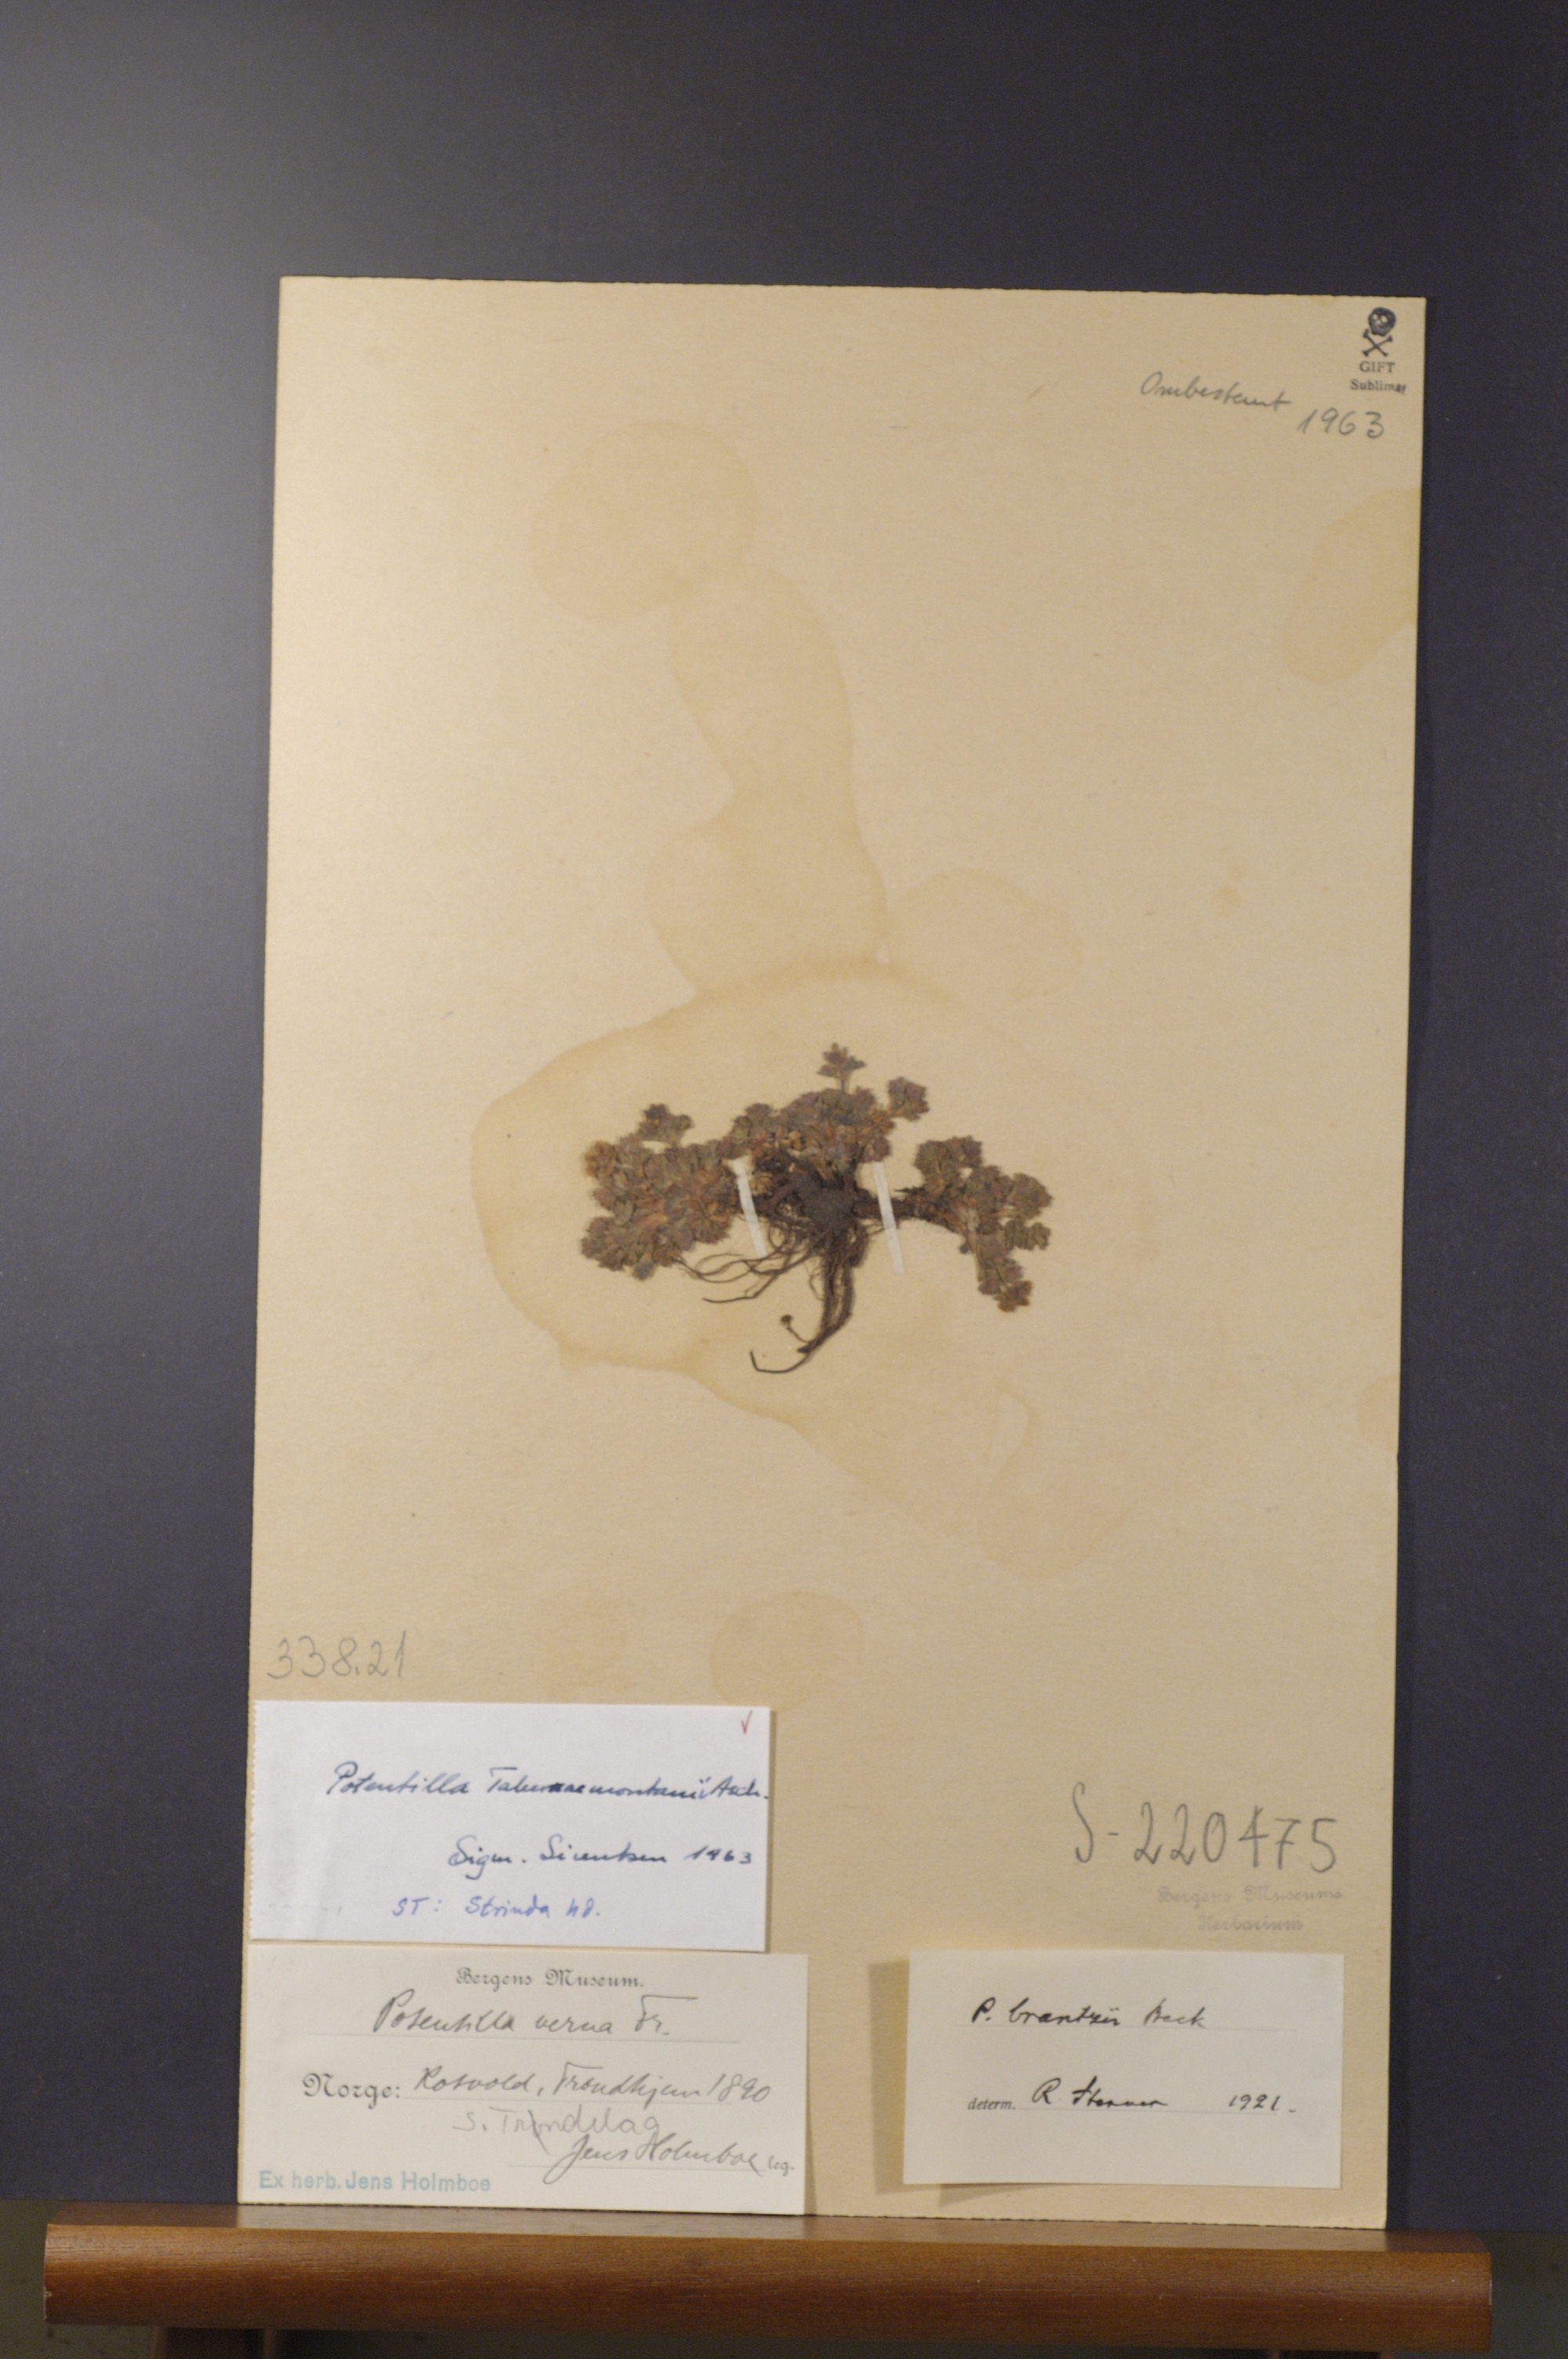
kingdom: Plantae
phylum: Tracheophyta
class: Magnoliopsida
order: Rosales
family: Rosaceae
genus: Potentilla
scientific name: Potentilla verna
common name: Spring cinquefoil
